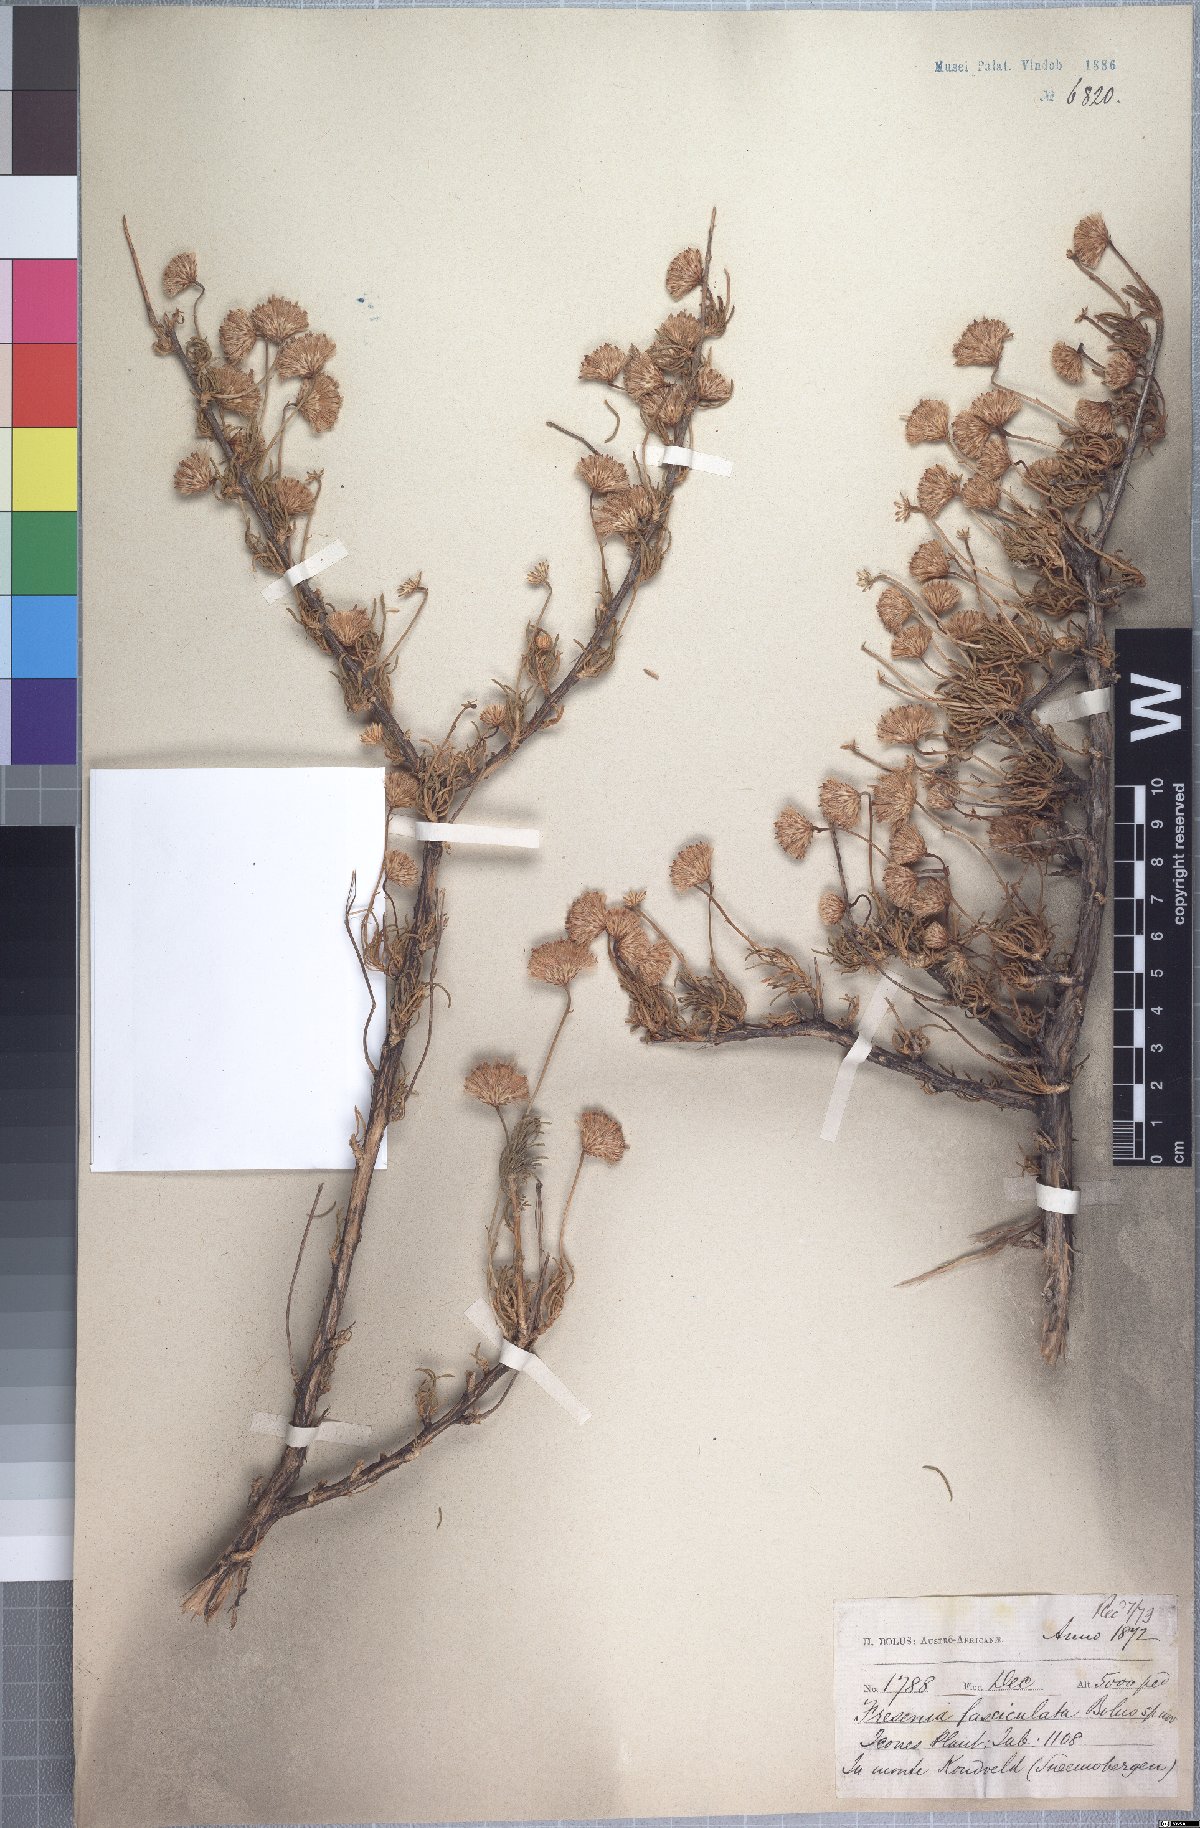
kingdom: Plantae
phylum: Tracheophyta
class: Magnoliopsida
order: Asterales
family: Asteraceae
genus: Felicia
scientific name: Felicia filifolia
